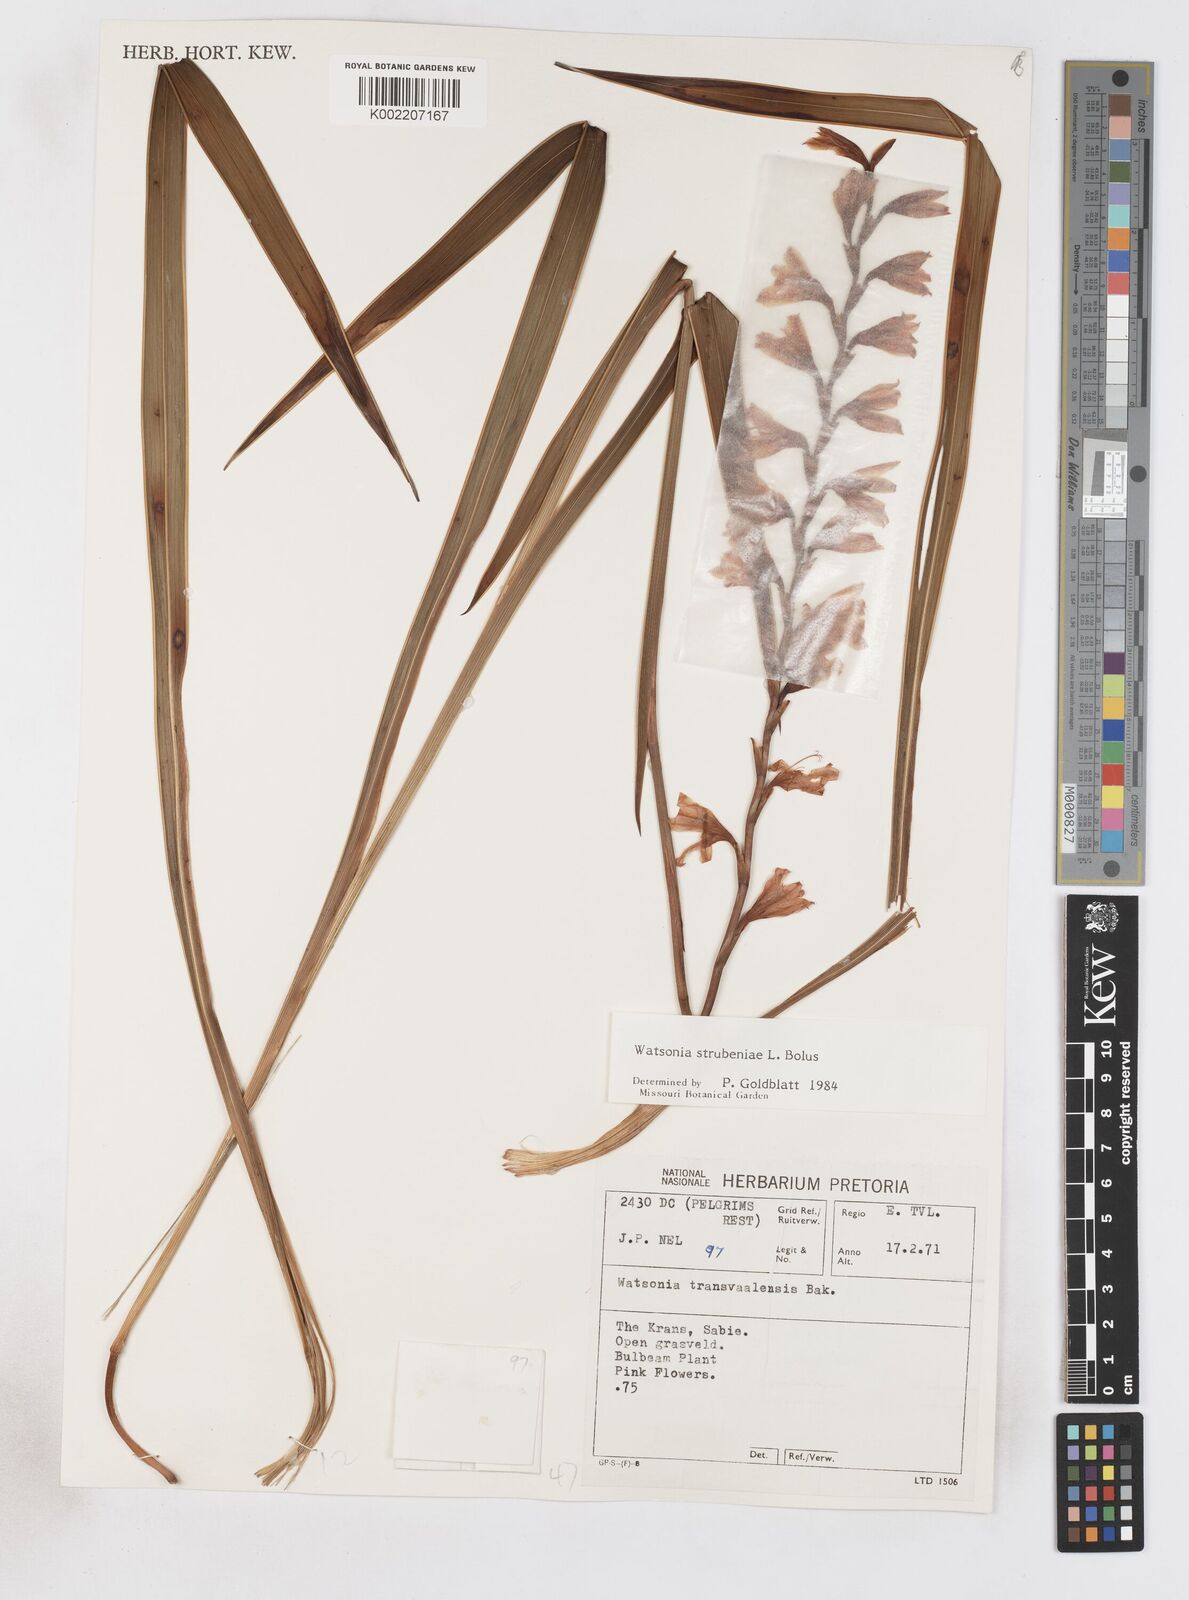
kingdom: Plantae
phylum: Tracheophyta
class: Liliopsida
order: Asparagales
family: Iridaceae
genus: Watsonia
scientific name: Watsonia strubeniae
